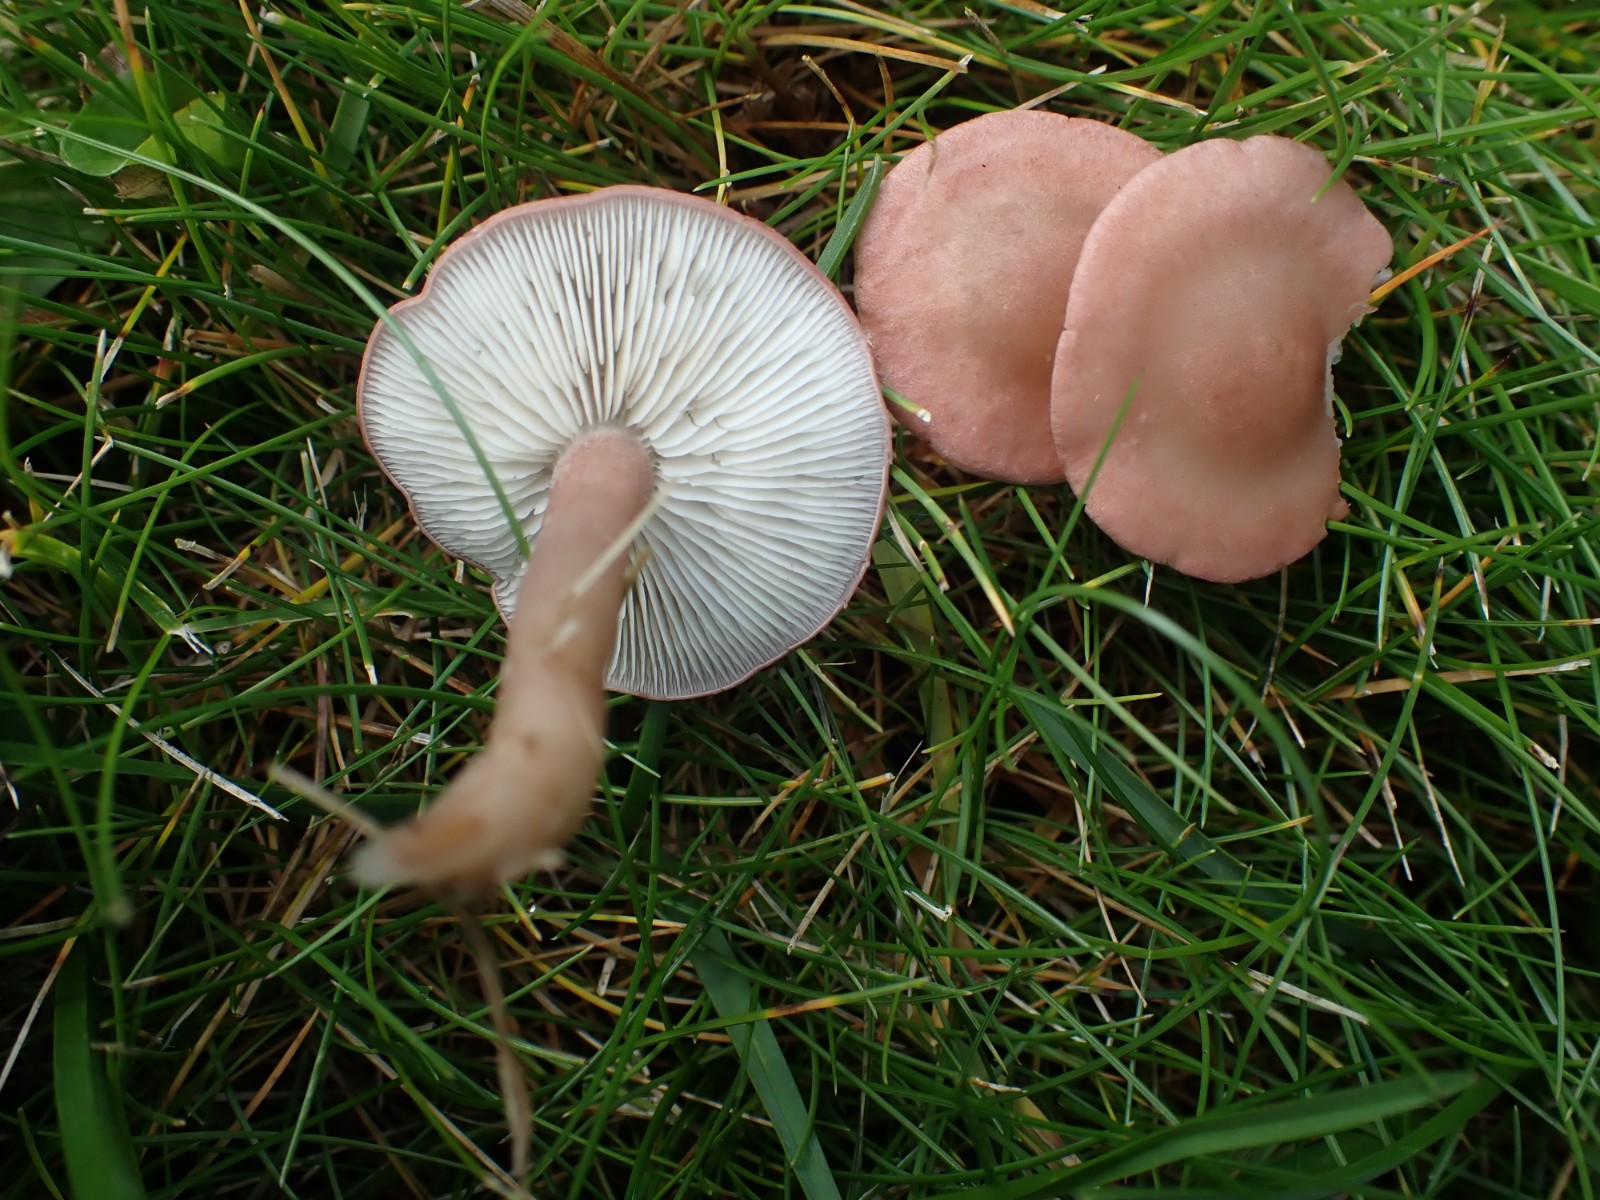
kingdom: Fungi
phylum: Basidiomycota
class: Agaricomycetes
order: Agaricales
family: Lyophyllaceae
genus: Calocybe
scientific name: Calocybe carnea
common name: rosa fagerhat
